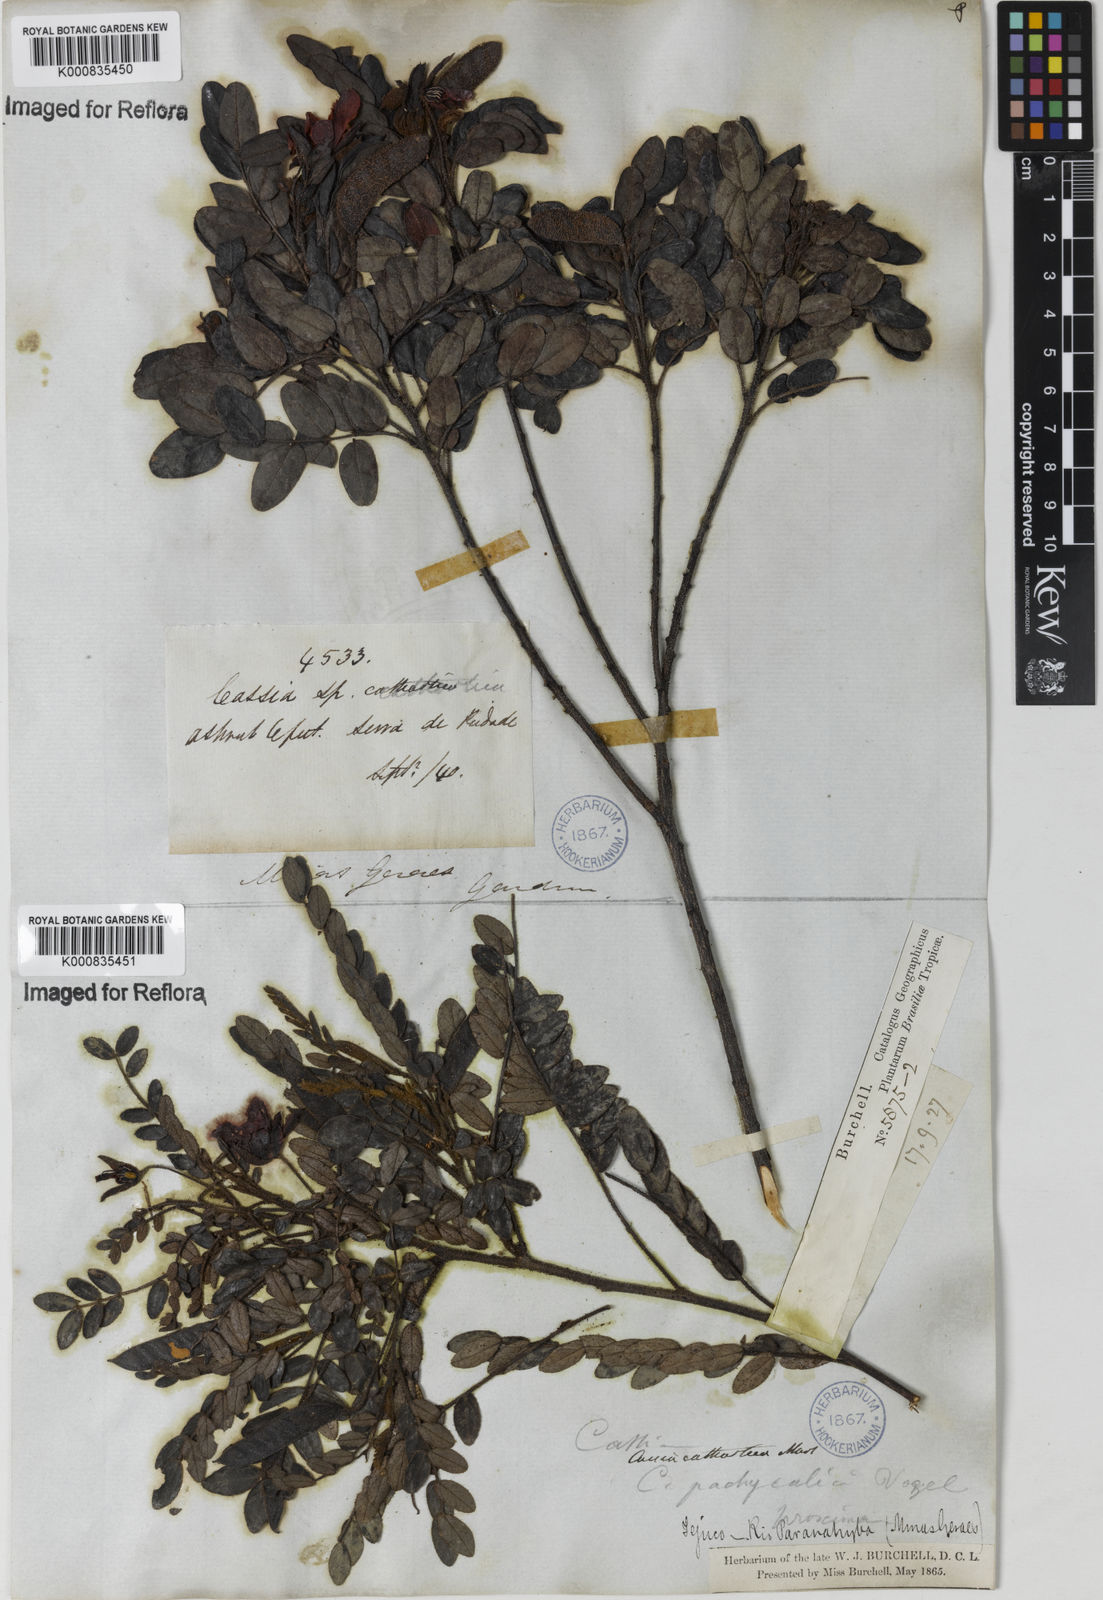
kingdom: Plantae
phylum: Tracheophyta
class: Magnoliopsida
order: Fabales
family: Fabaceae
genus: Chamaecrista
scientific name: Chamaecrista cathartica
